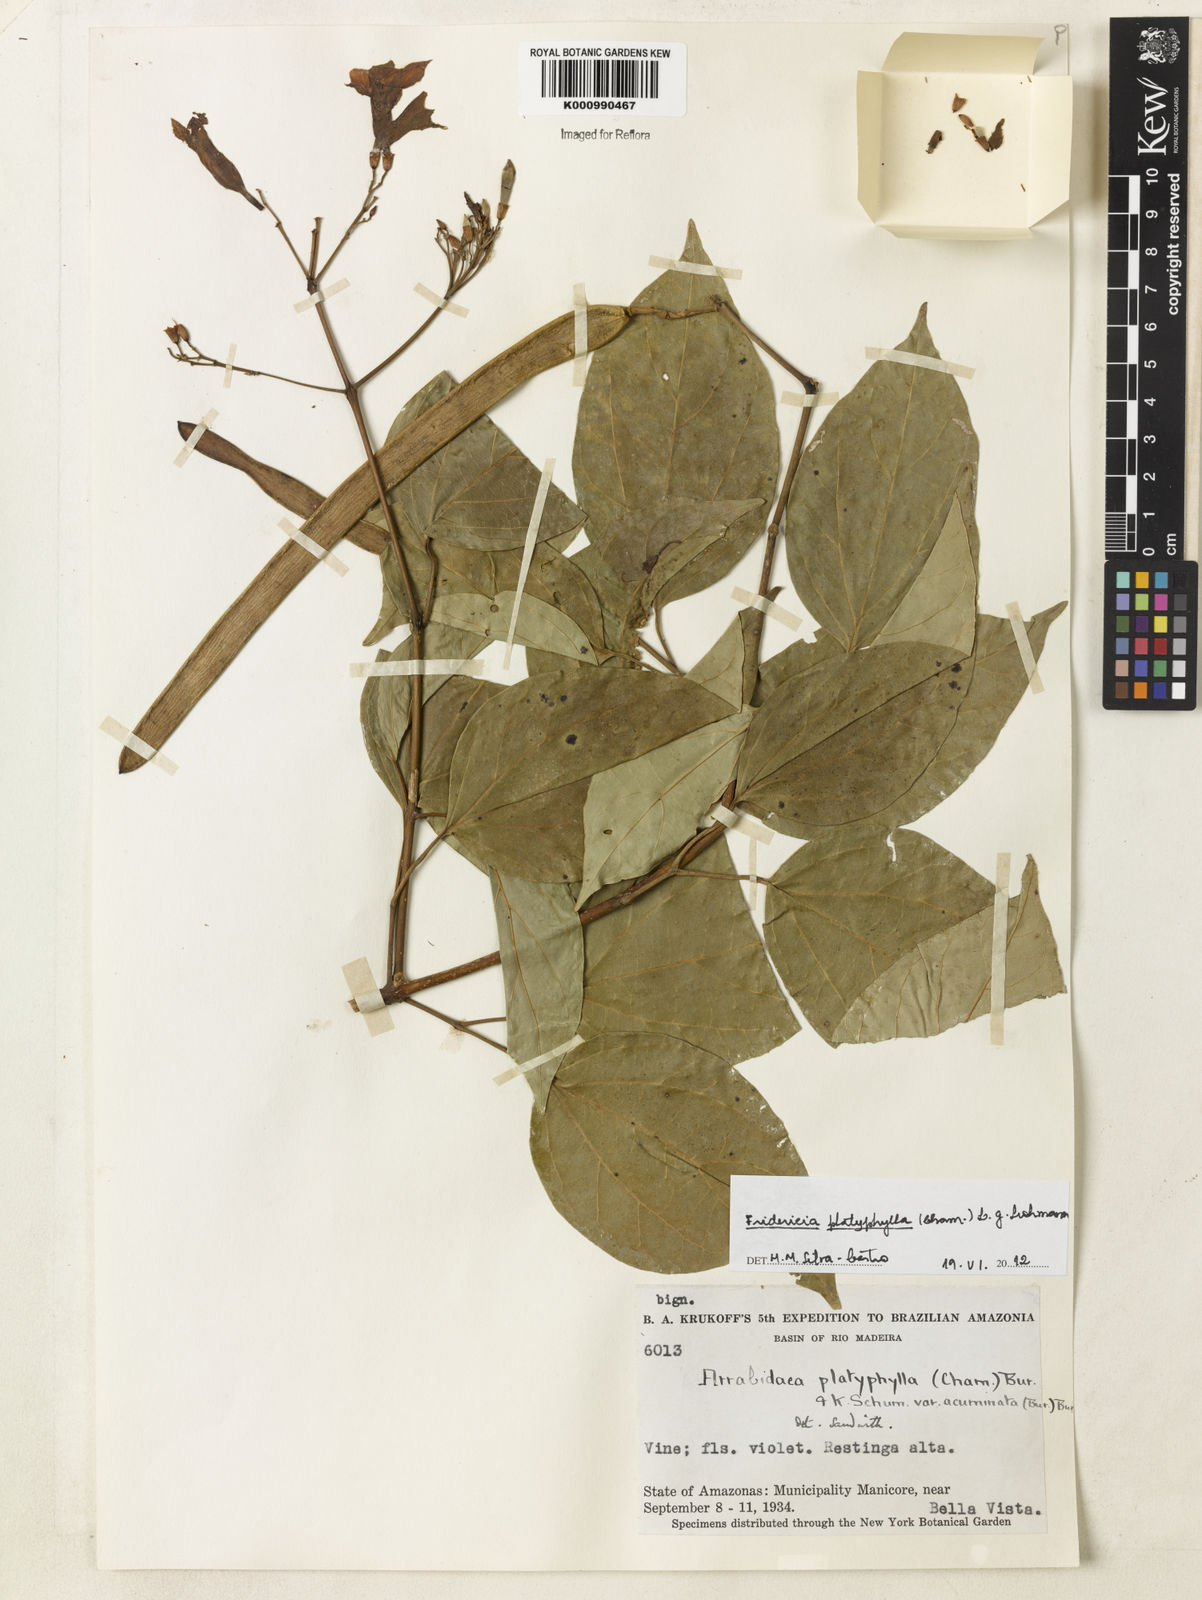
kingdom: Plantae
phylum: Tracheophyta
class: Magnoliopsida
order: Lamiales
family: Bignoniaceae
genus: Fridericia
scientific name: Fridericia platyphylla
